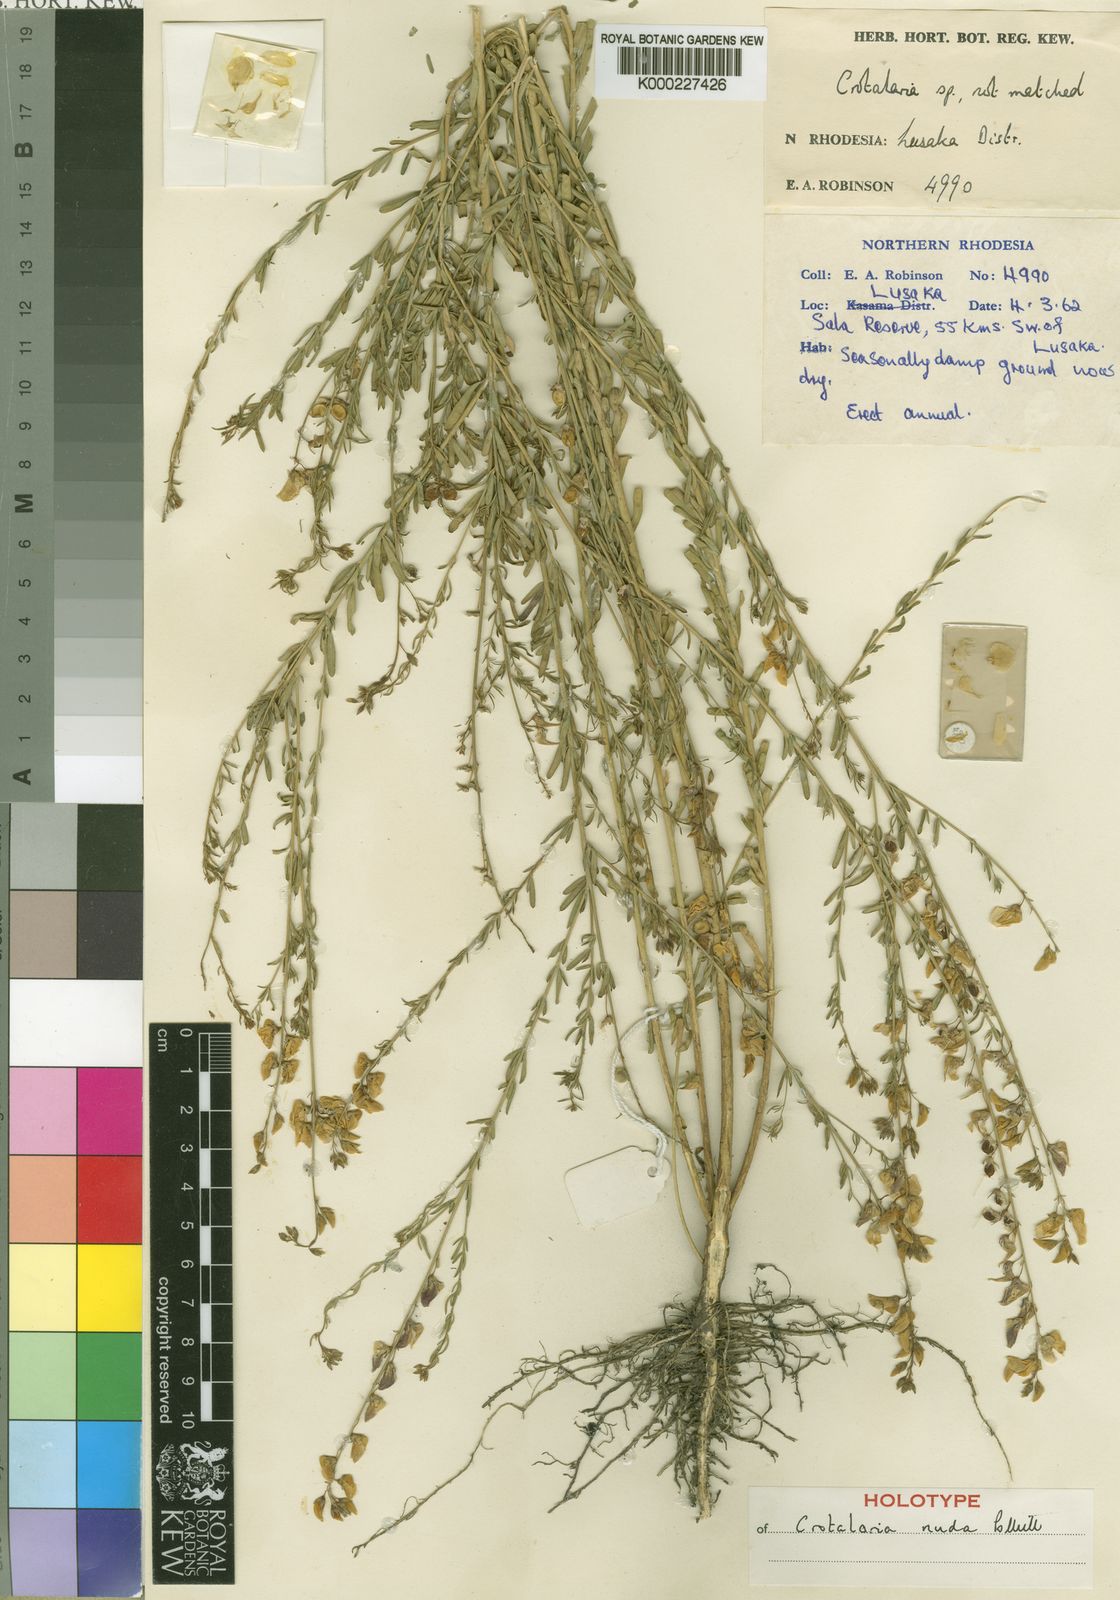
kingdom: Plantae
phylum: Tracheophyta
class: Magnoliopsida
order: Fabales
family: Fabaceae
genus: Crotalaria
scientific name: Crotalaria nuda
